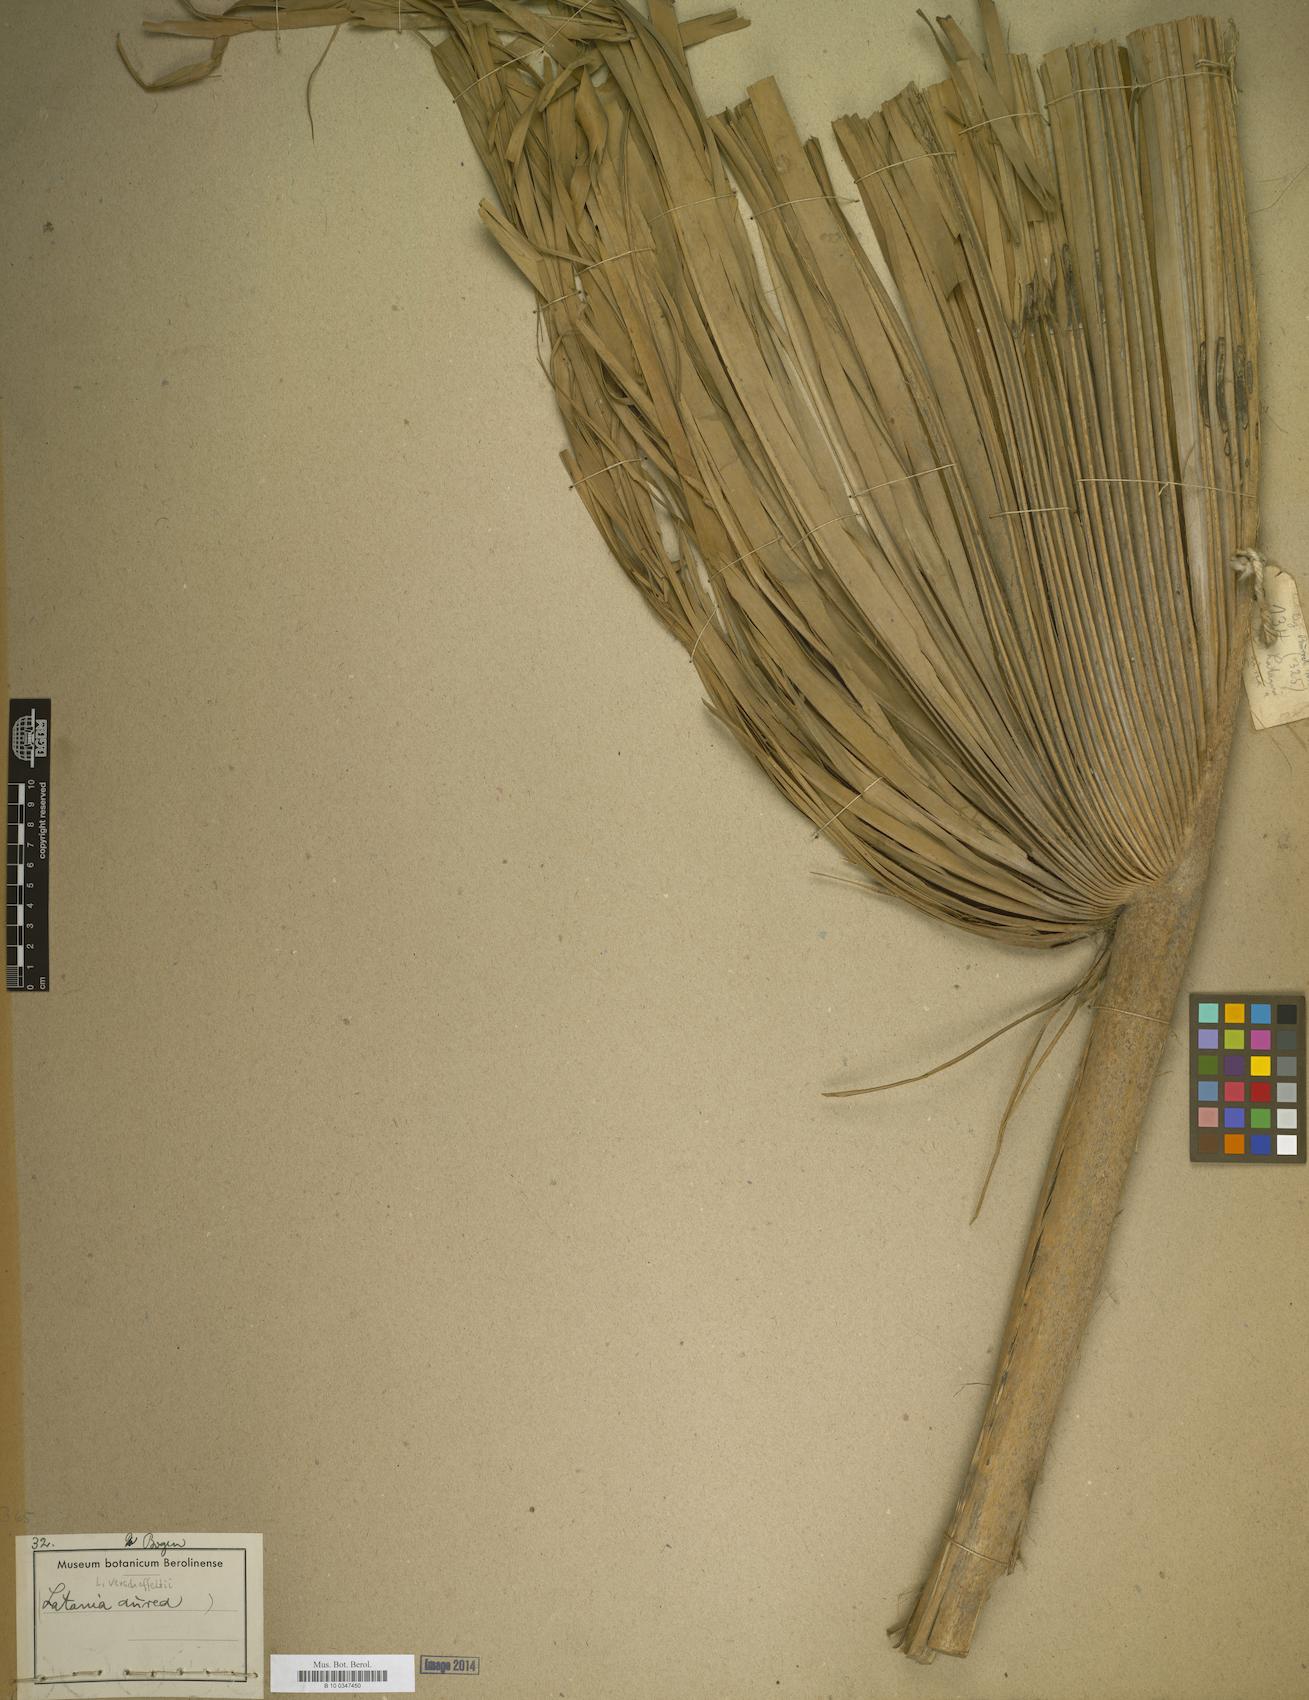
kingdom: Plantae
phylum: Tracheophyta
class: Liliopsida
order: Arecales
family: Arecaceae
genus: Latania
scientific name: Latania verschaffeltii
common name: Yellow latan
